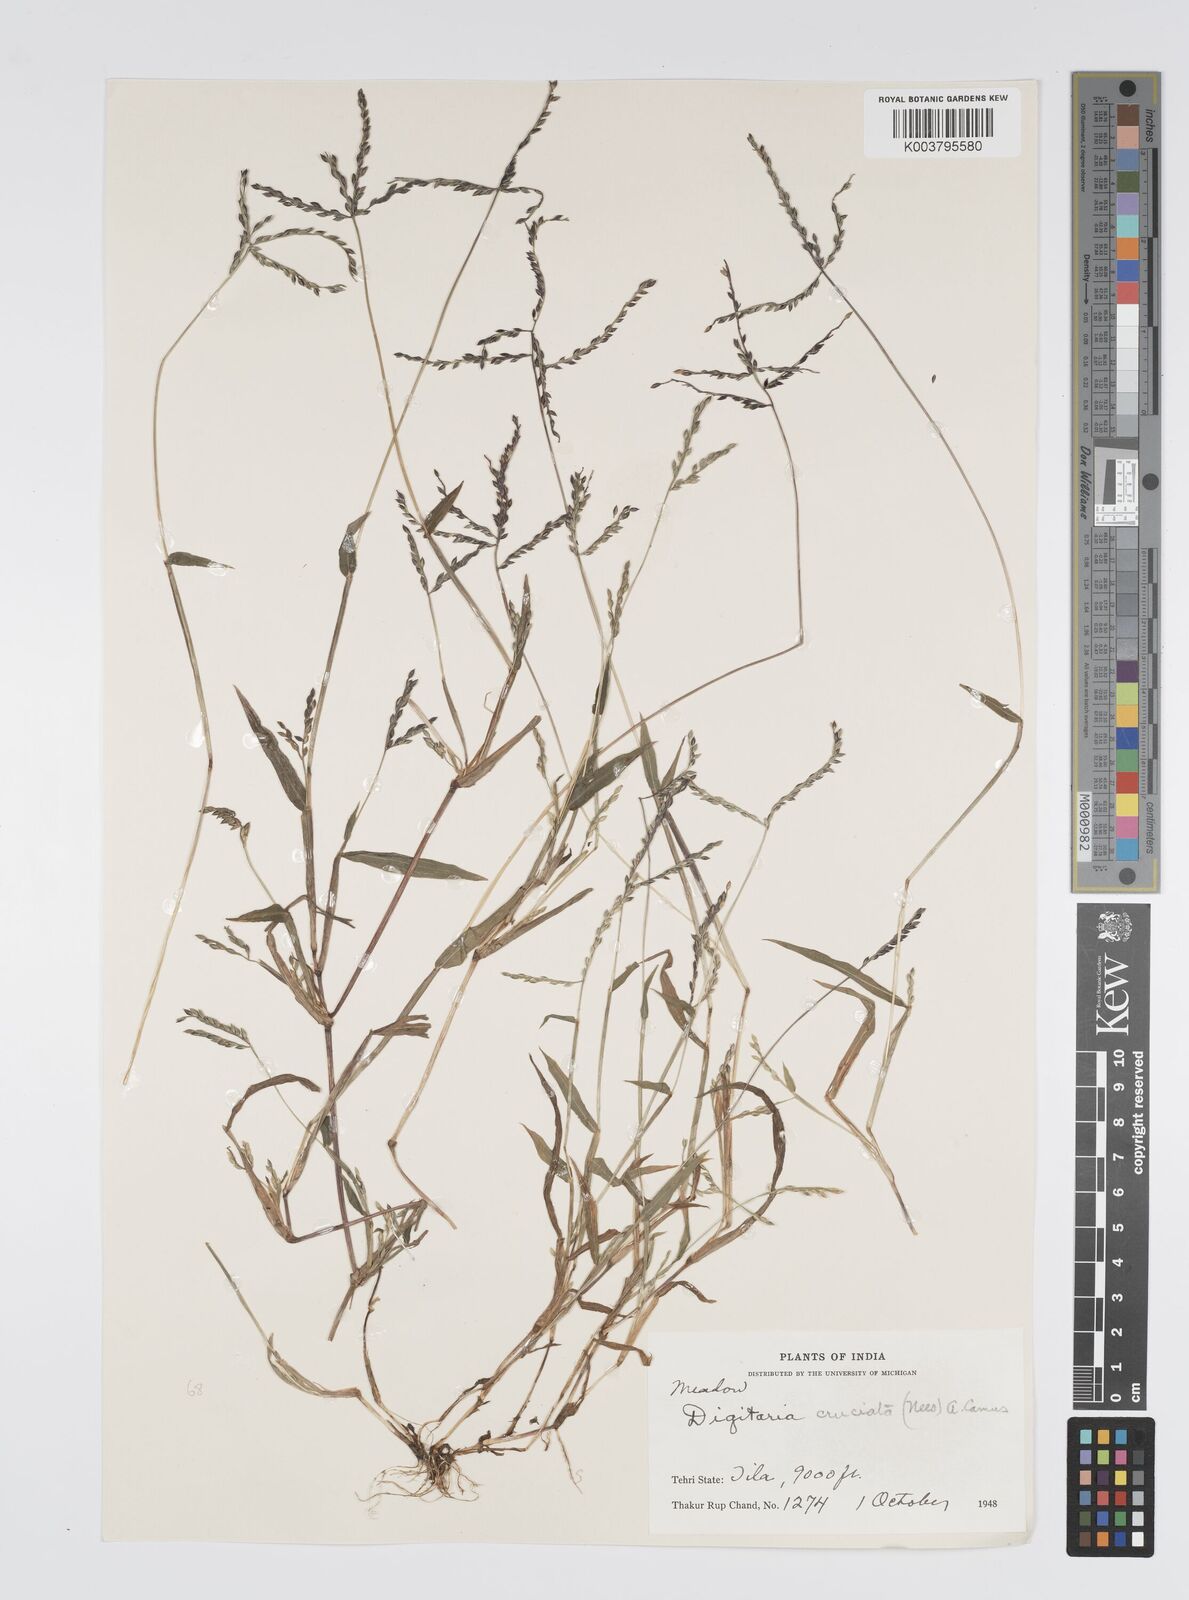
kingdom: Plantae
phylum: Tracheophyta
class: Liliopsida
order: Poales
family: Poaceae
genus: Digitaria
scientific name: Digitaria sanguinalis
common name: Hairy crabgrass
